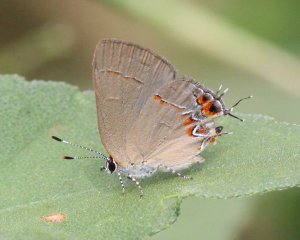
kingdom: Animalia
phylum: Arthropoda
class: Insecta
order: Lepidoptera
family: Lycaenidae
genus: Calycopis
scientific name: Calycopis isobeon
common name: Dusky-blue Groundstreak
